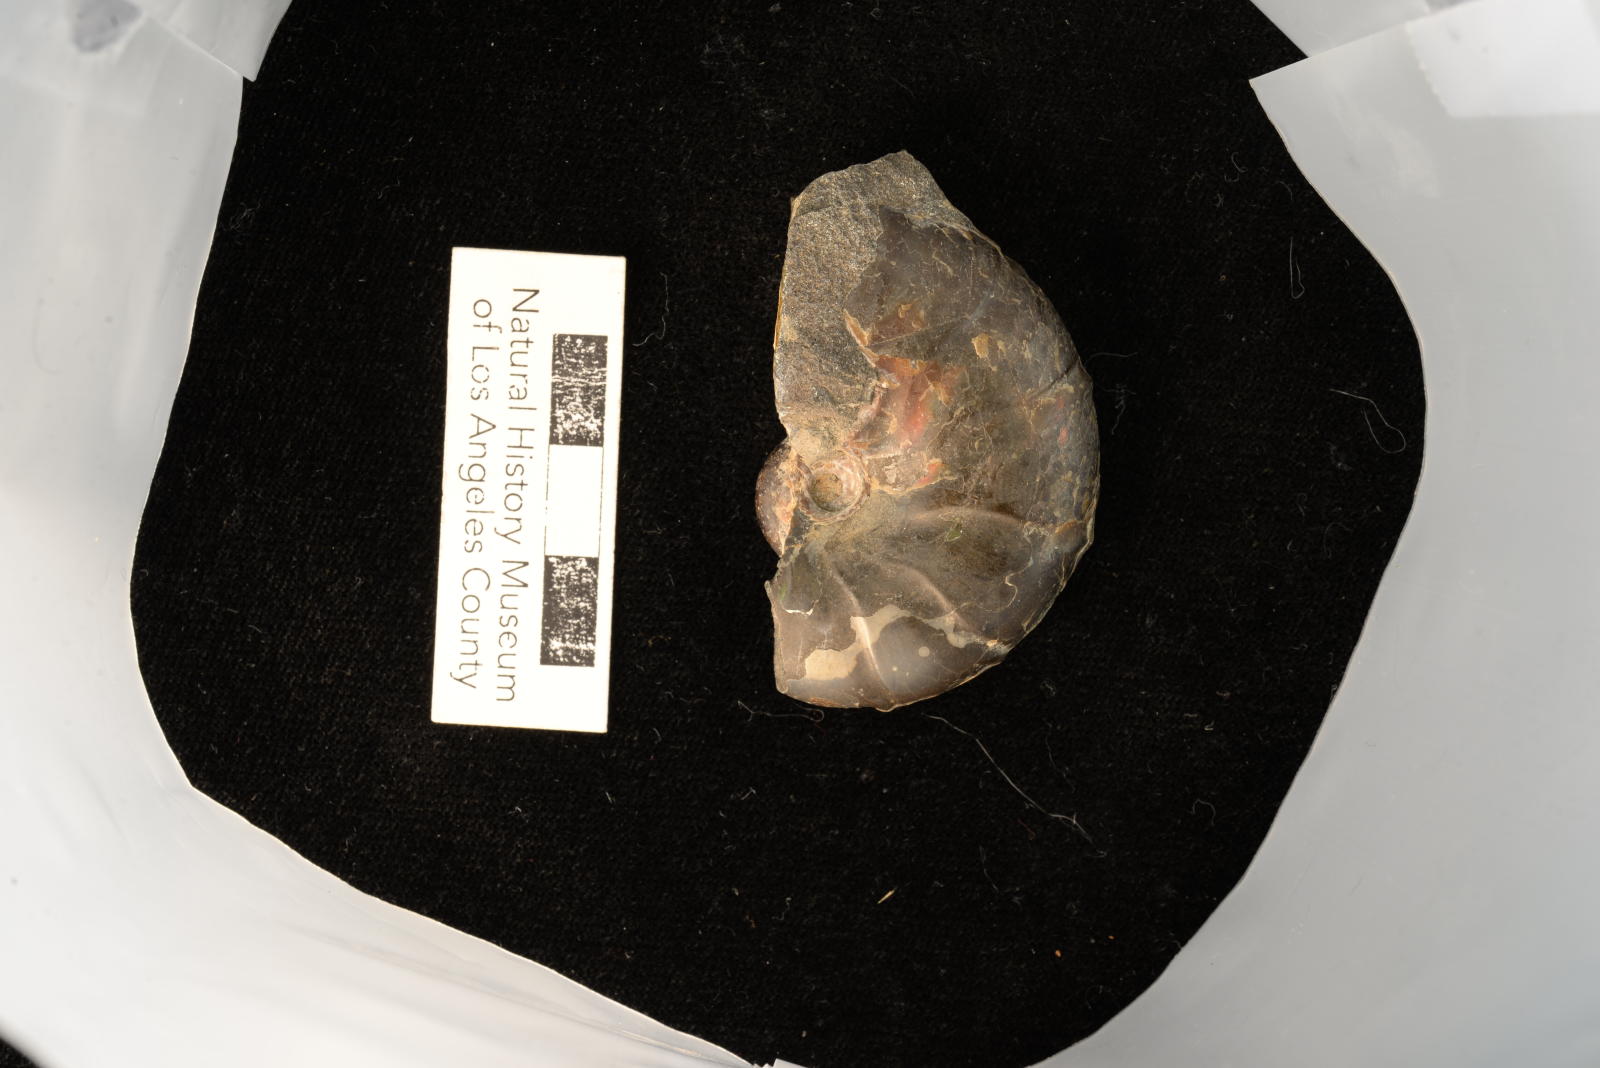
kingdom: Animalia
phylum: Mollusca
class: Cephalopoda
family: Desmoceratidae
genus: Desmoceras
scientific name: Desmoceras barryae
